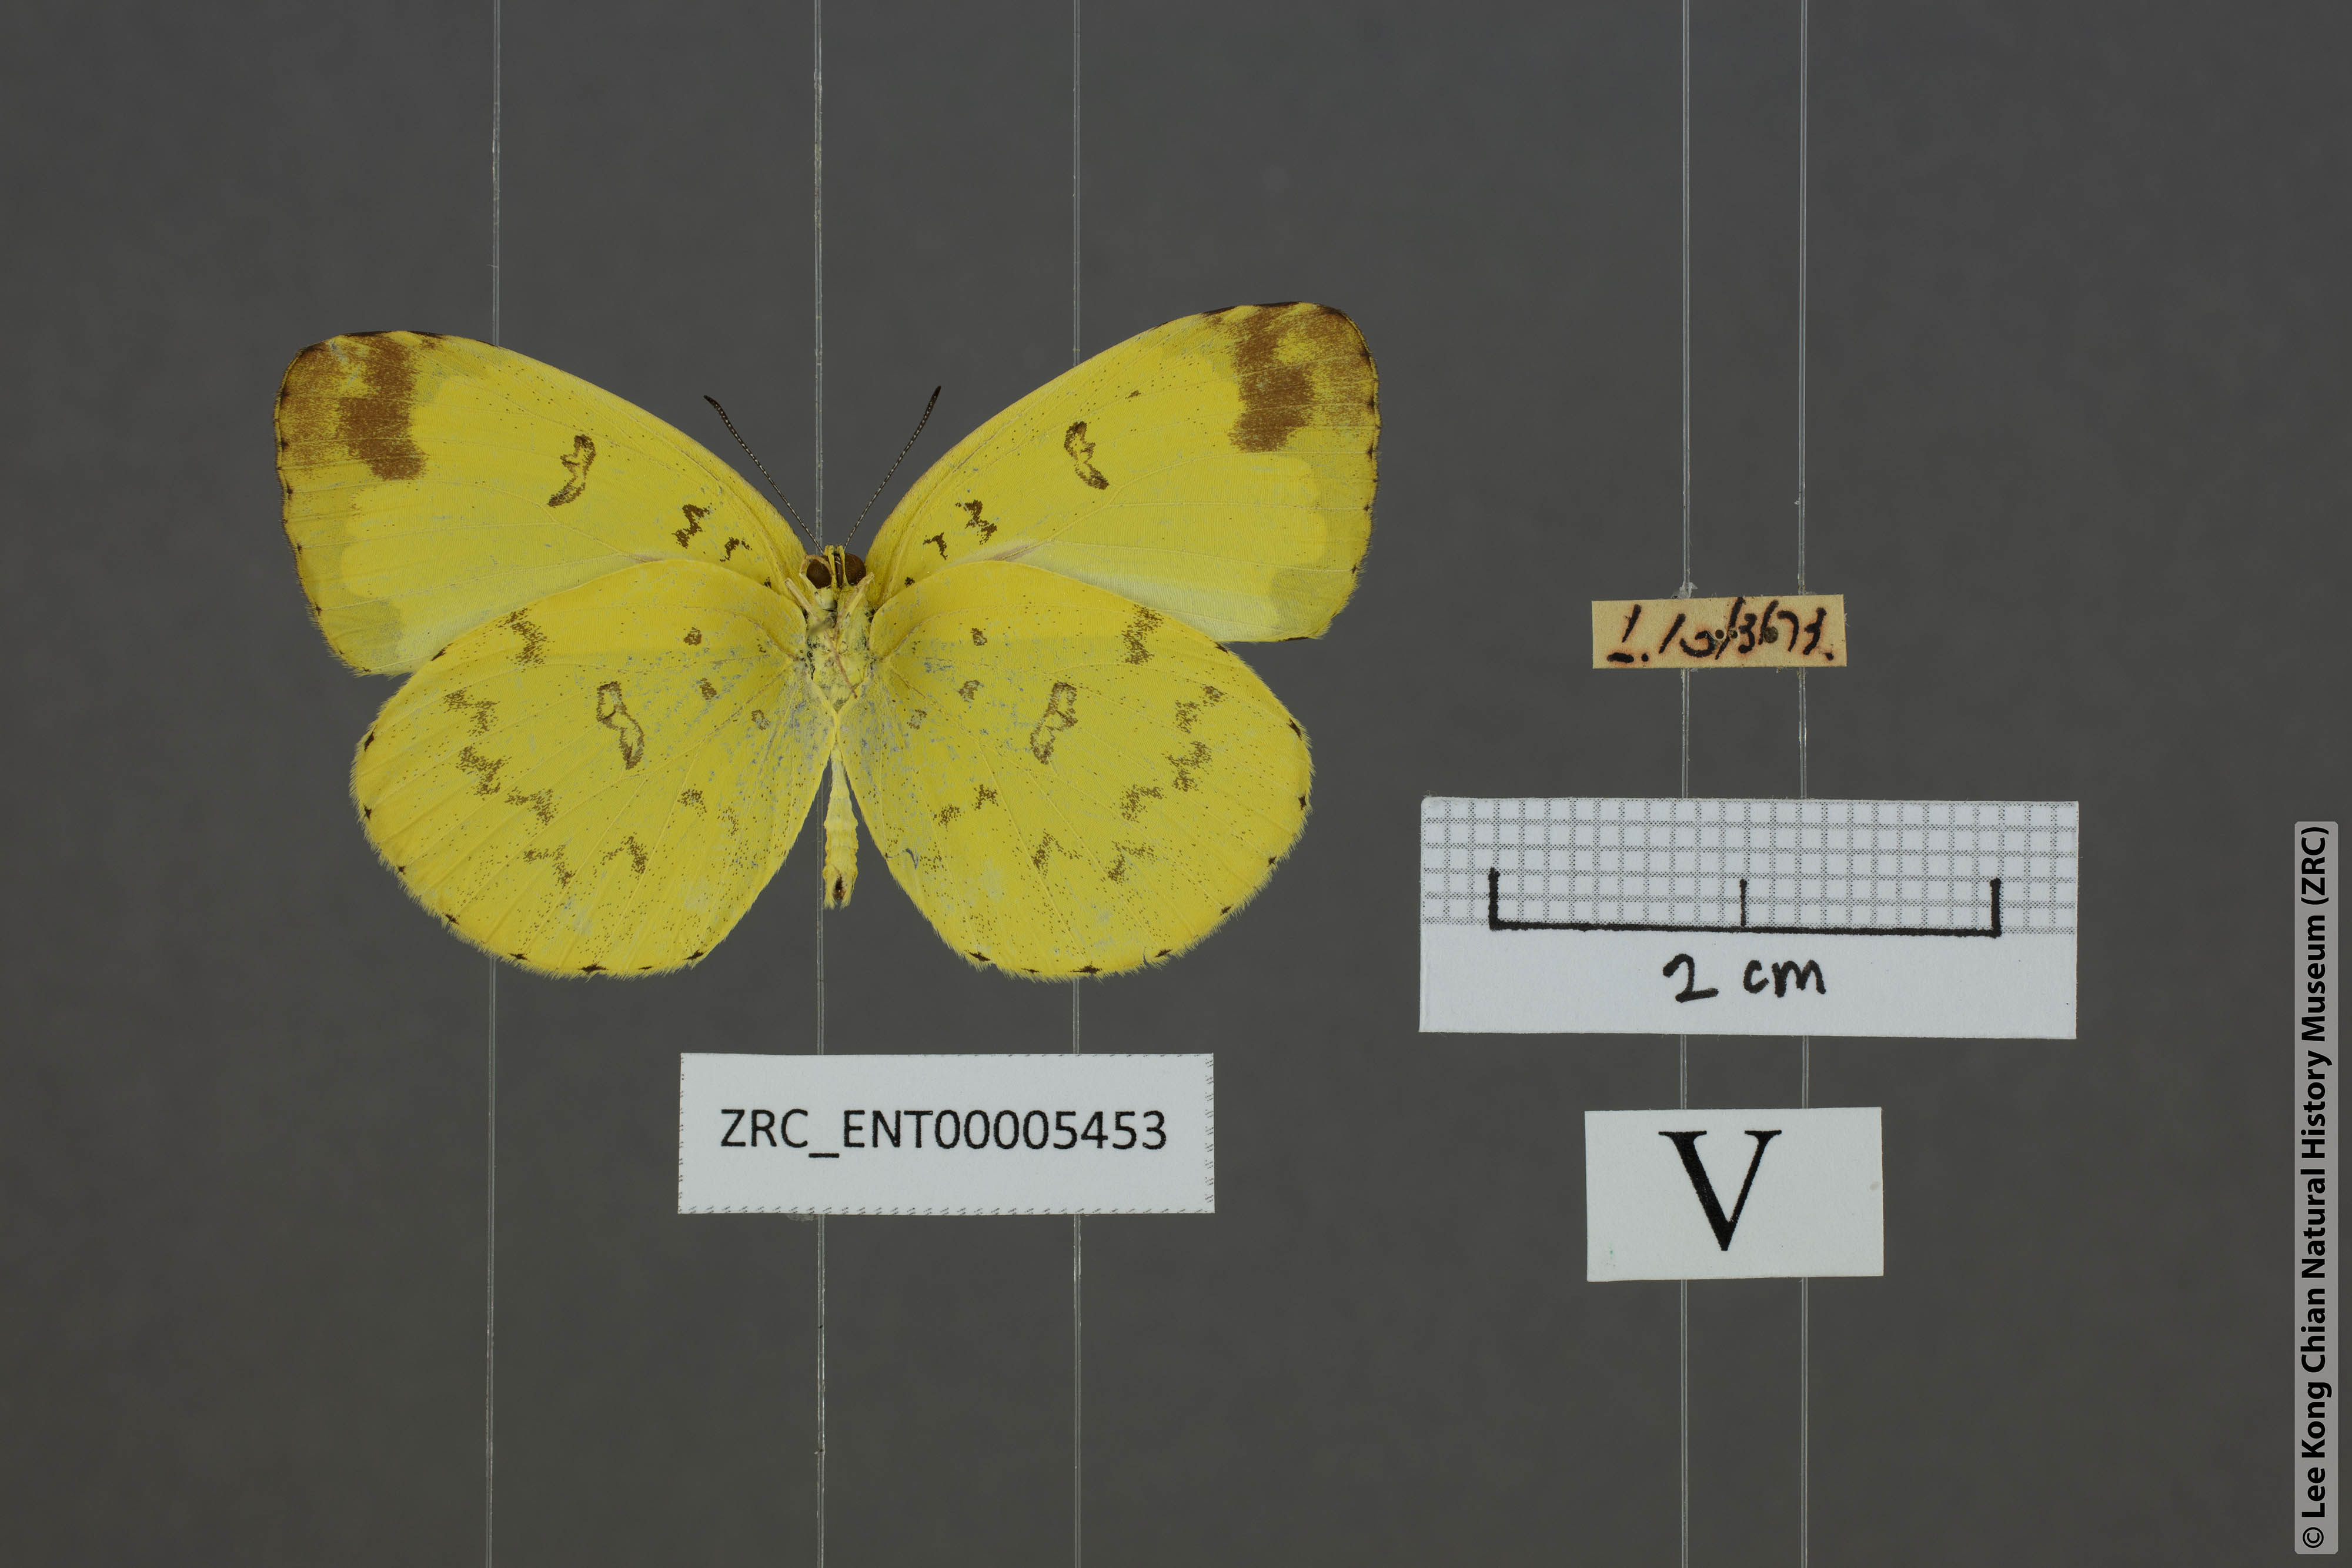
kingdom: Animalia
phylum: Arthropoda
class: Insecta
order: Lepidoptera
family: Pieridae
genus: Eurema
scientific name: Eurema lacteola
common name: Scarce grass yellow
